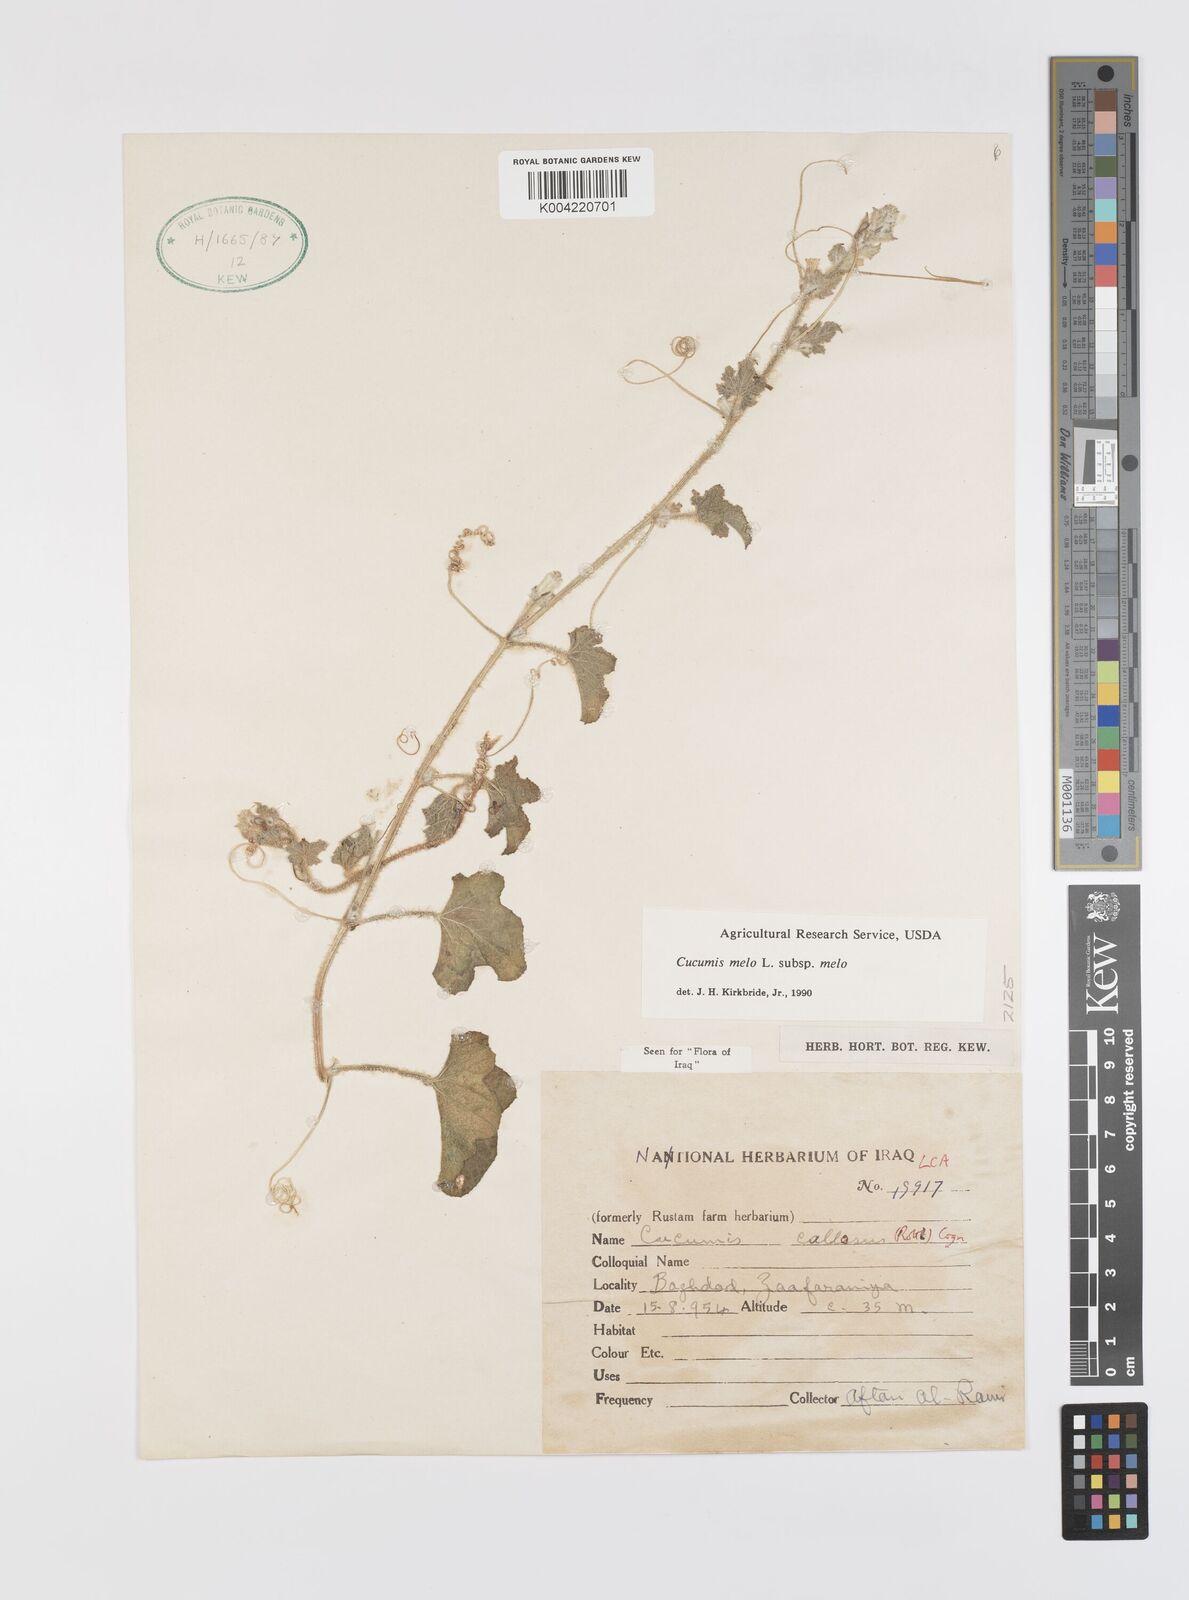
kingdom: Plantae
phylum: Tracheophyta
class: Magnoliopsida
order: Cucurbitales
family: Cucurbitaceae
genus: Cucumis
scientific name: Cucumis melo
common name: Melon
